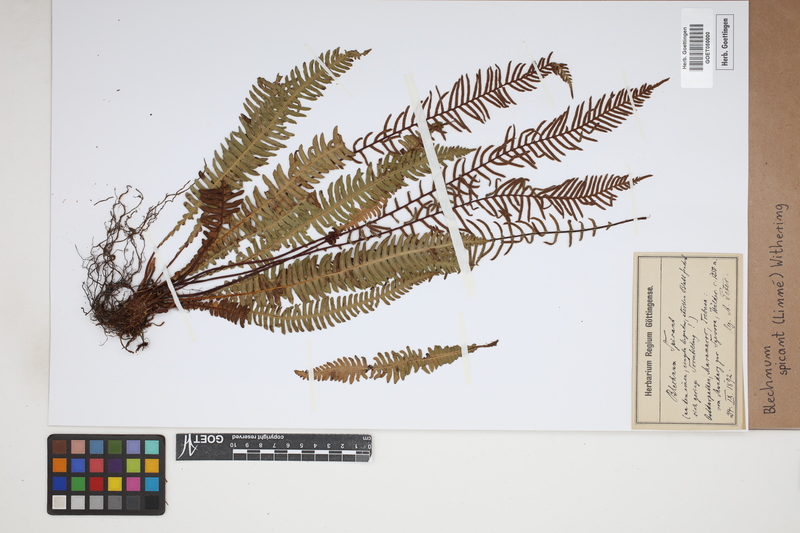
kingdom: Plantae
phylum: Tracheophyta
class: Polypodiopsida
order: Polypodiales
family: Blechnaceae
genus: Struthiopteris
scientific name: Struthiopteris spicant
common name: Deer fern
